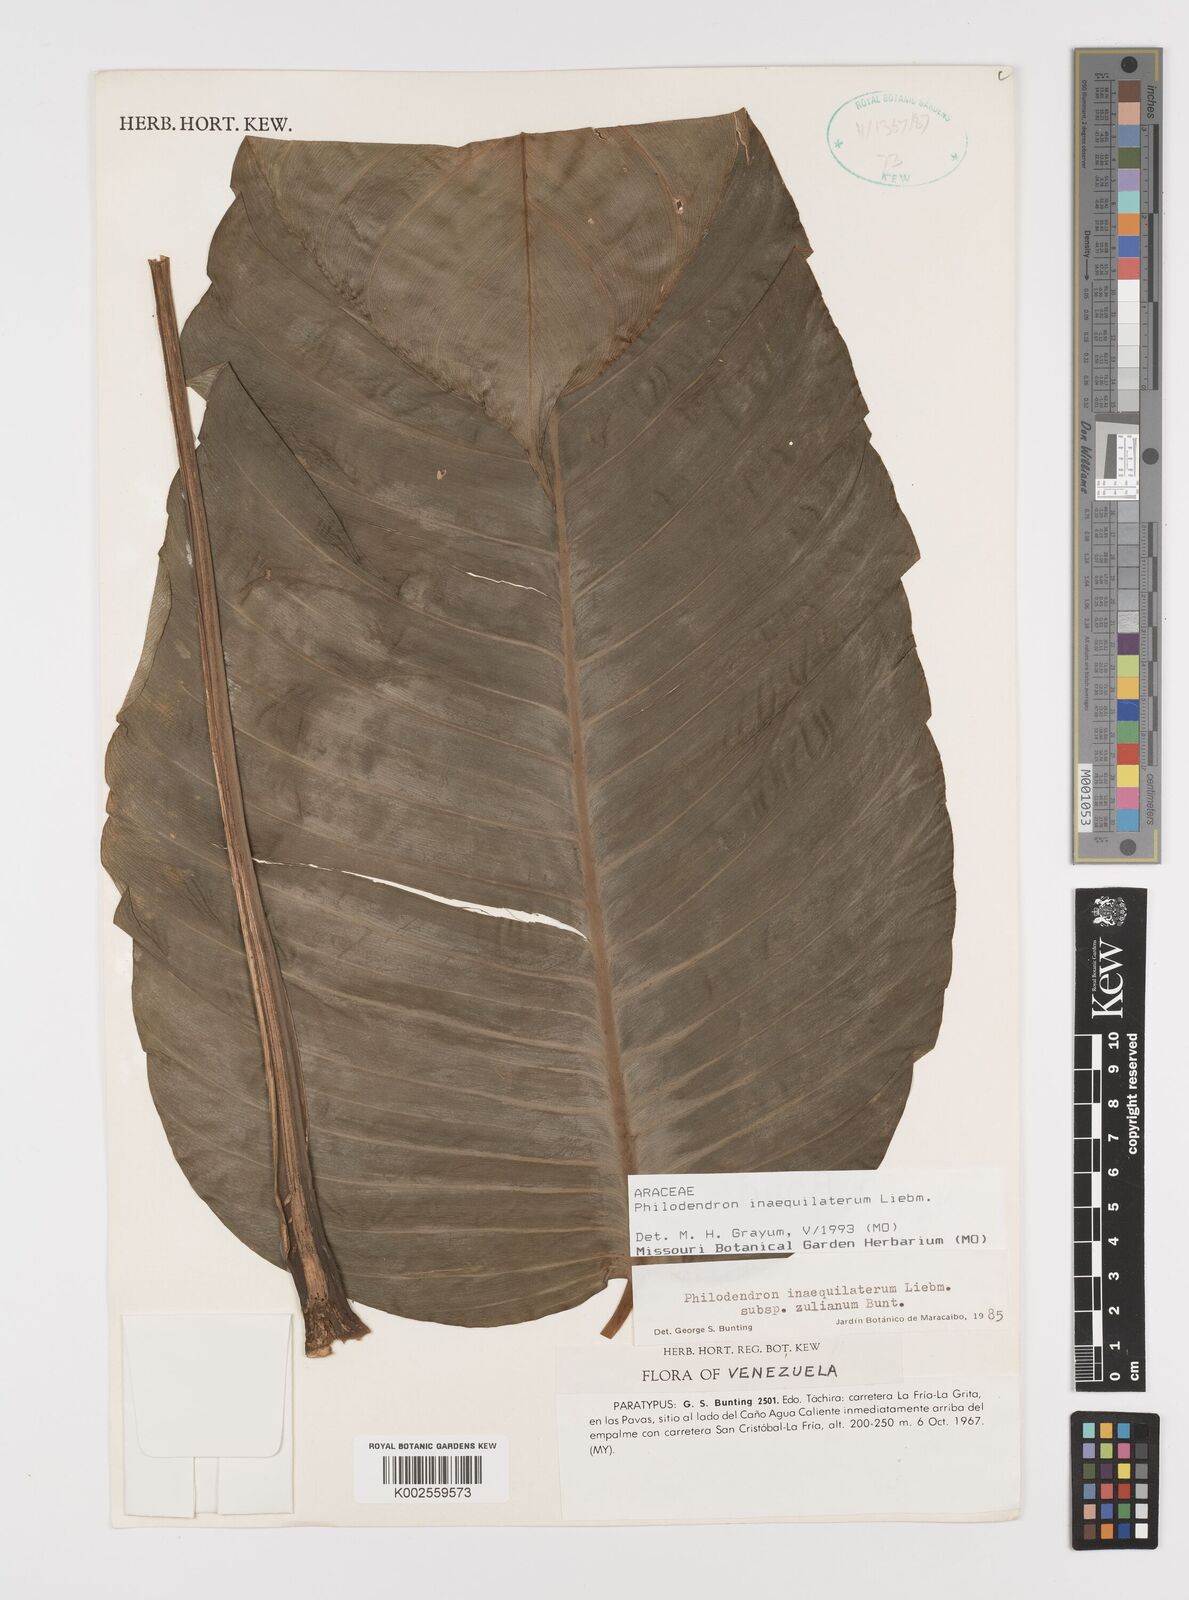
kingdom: Plantae
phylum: Tracheophyta
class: Liliopsida
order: Alismatales
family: Araceae
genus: Philodendron
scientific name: Philodendron inaequilaterum
